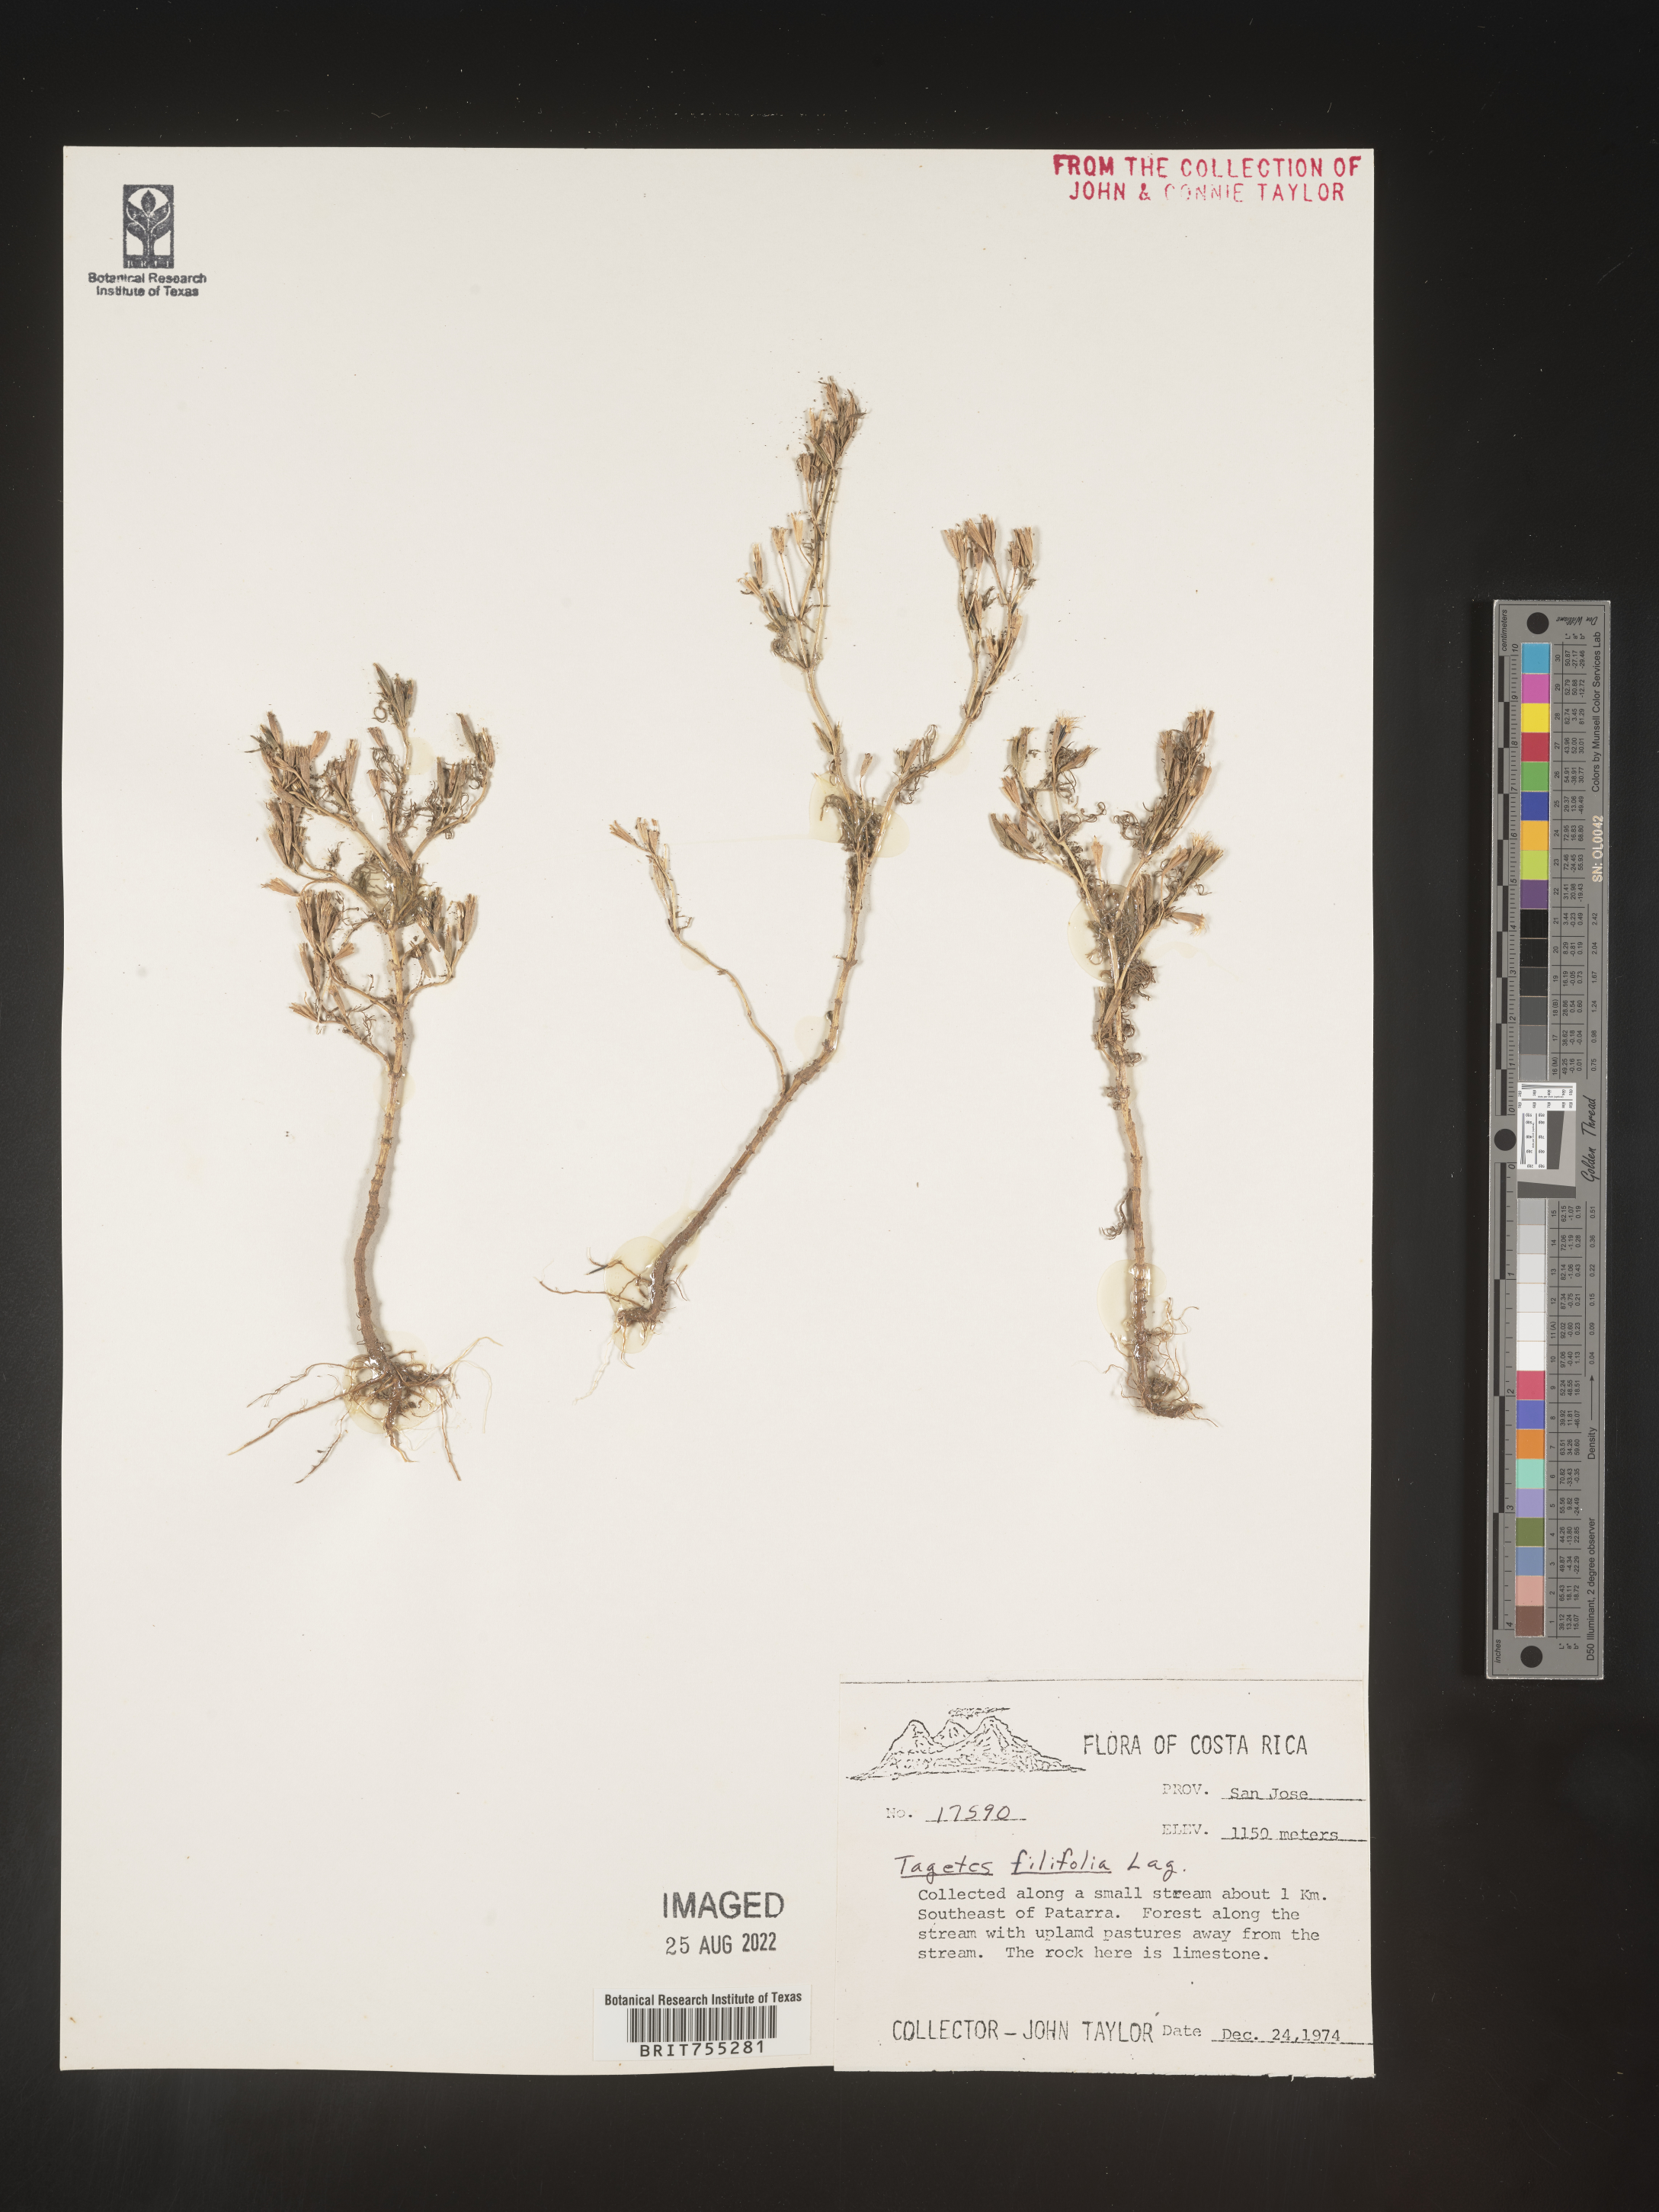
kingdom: Plantae
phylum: Tracheophyta
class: Magnoliopsida
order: Asterales
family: Asteraceae
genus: Tagetes
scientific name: Tagetes
